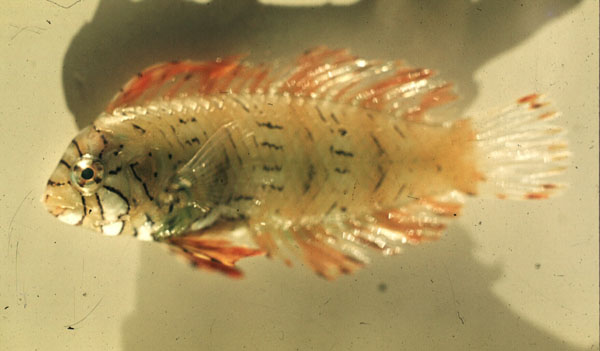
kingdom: Animalia
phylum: Chordata
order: Perciformes
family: Labridae
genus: Novaculichthys
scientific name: Novaculichthys taeniourus
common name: Rockmover wrasse
